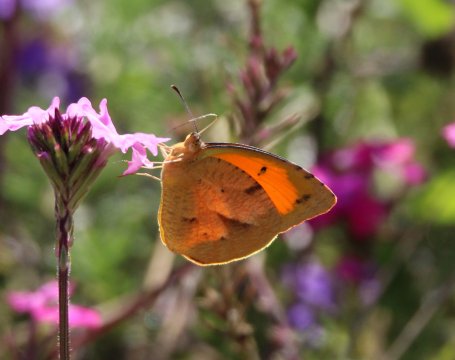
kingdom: Animalia
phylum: Arthropoda
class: Insecta
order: Lepidoptera
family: Pieridae
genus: Abaeis
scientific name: Abaeis nicippe
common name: Sleepy Orange
